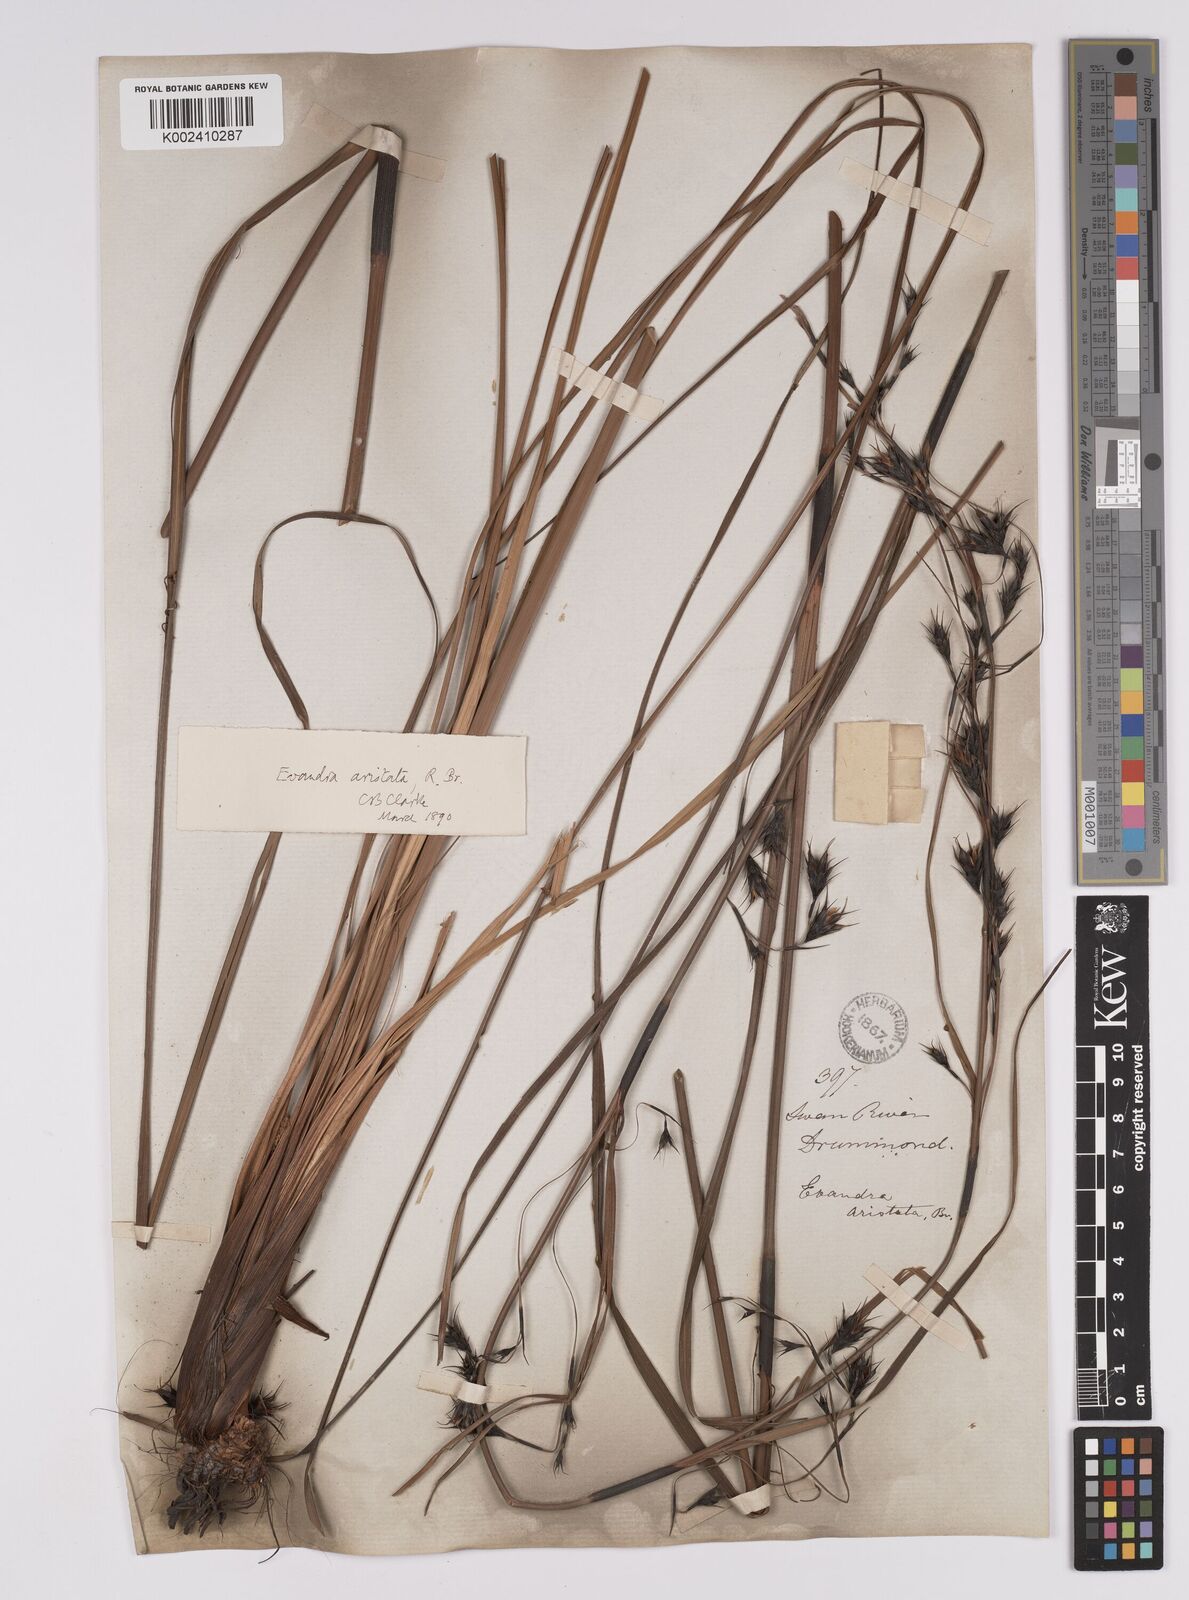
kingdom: Plantae
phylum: Tracheophyta
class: Liliopsida
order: Poales
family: Cyperaceae
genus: Evandra
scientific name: Evandra aristata
